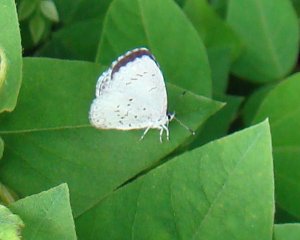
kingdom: Animalia
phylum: Arthropoda
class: Insecta
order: Lepidoptera
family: Lycaenidae
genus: Cyaniris
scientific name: Cyaniris neglecta
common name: Summer Azure
